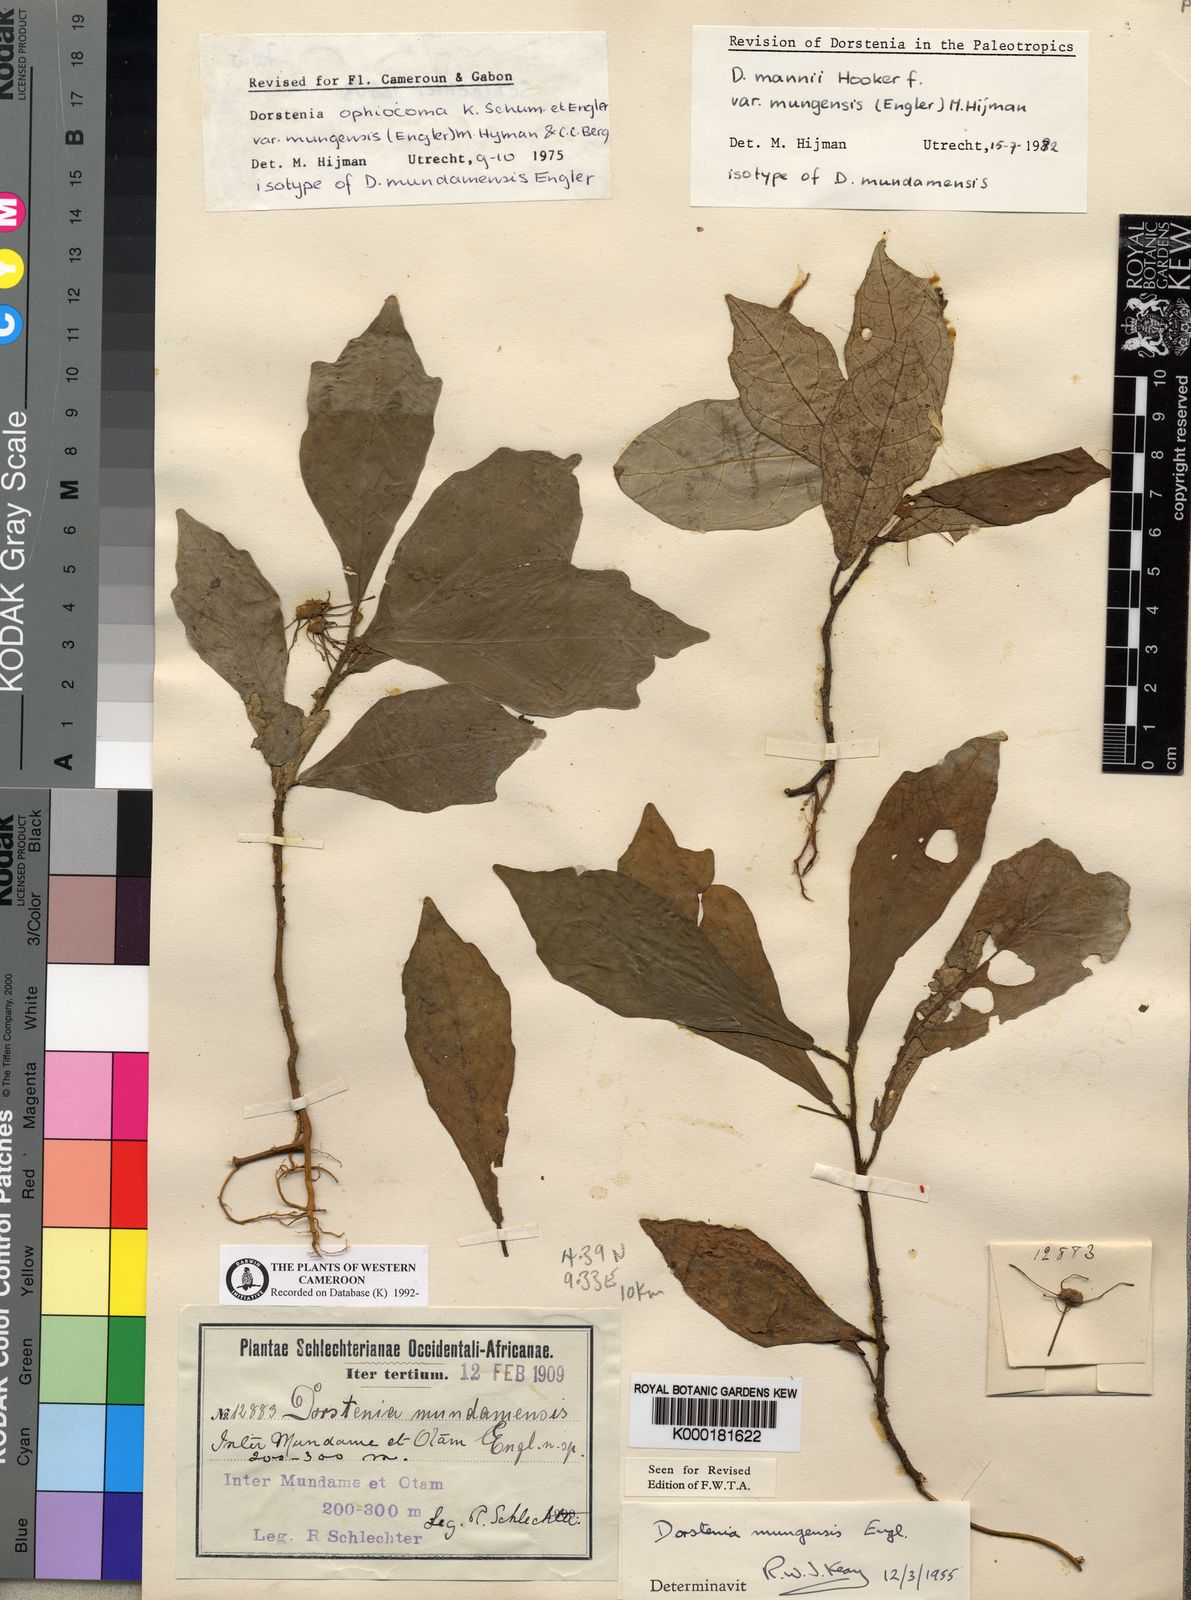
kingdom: Plantae
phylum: Tracheophyta
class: Magnoliopsida
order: Rosales
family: Moraceae
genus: Dorstenia
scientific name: Dorstenia mannii
